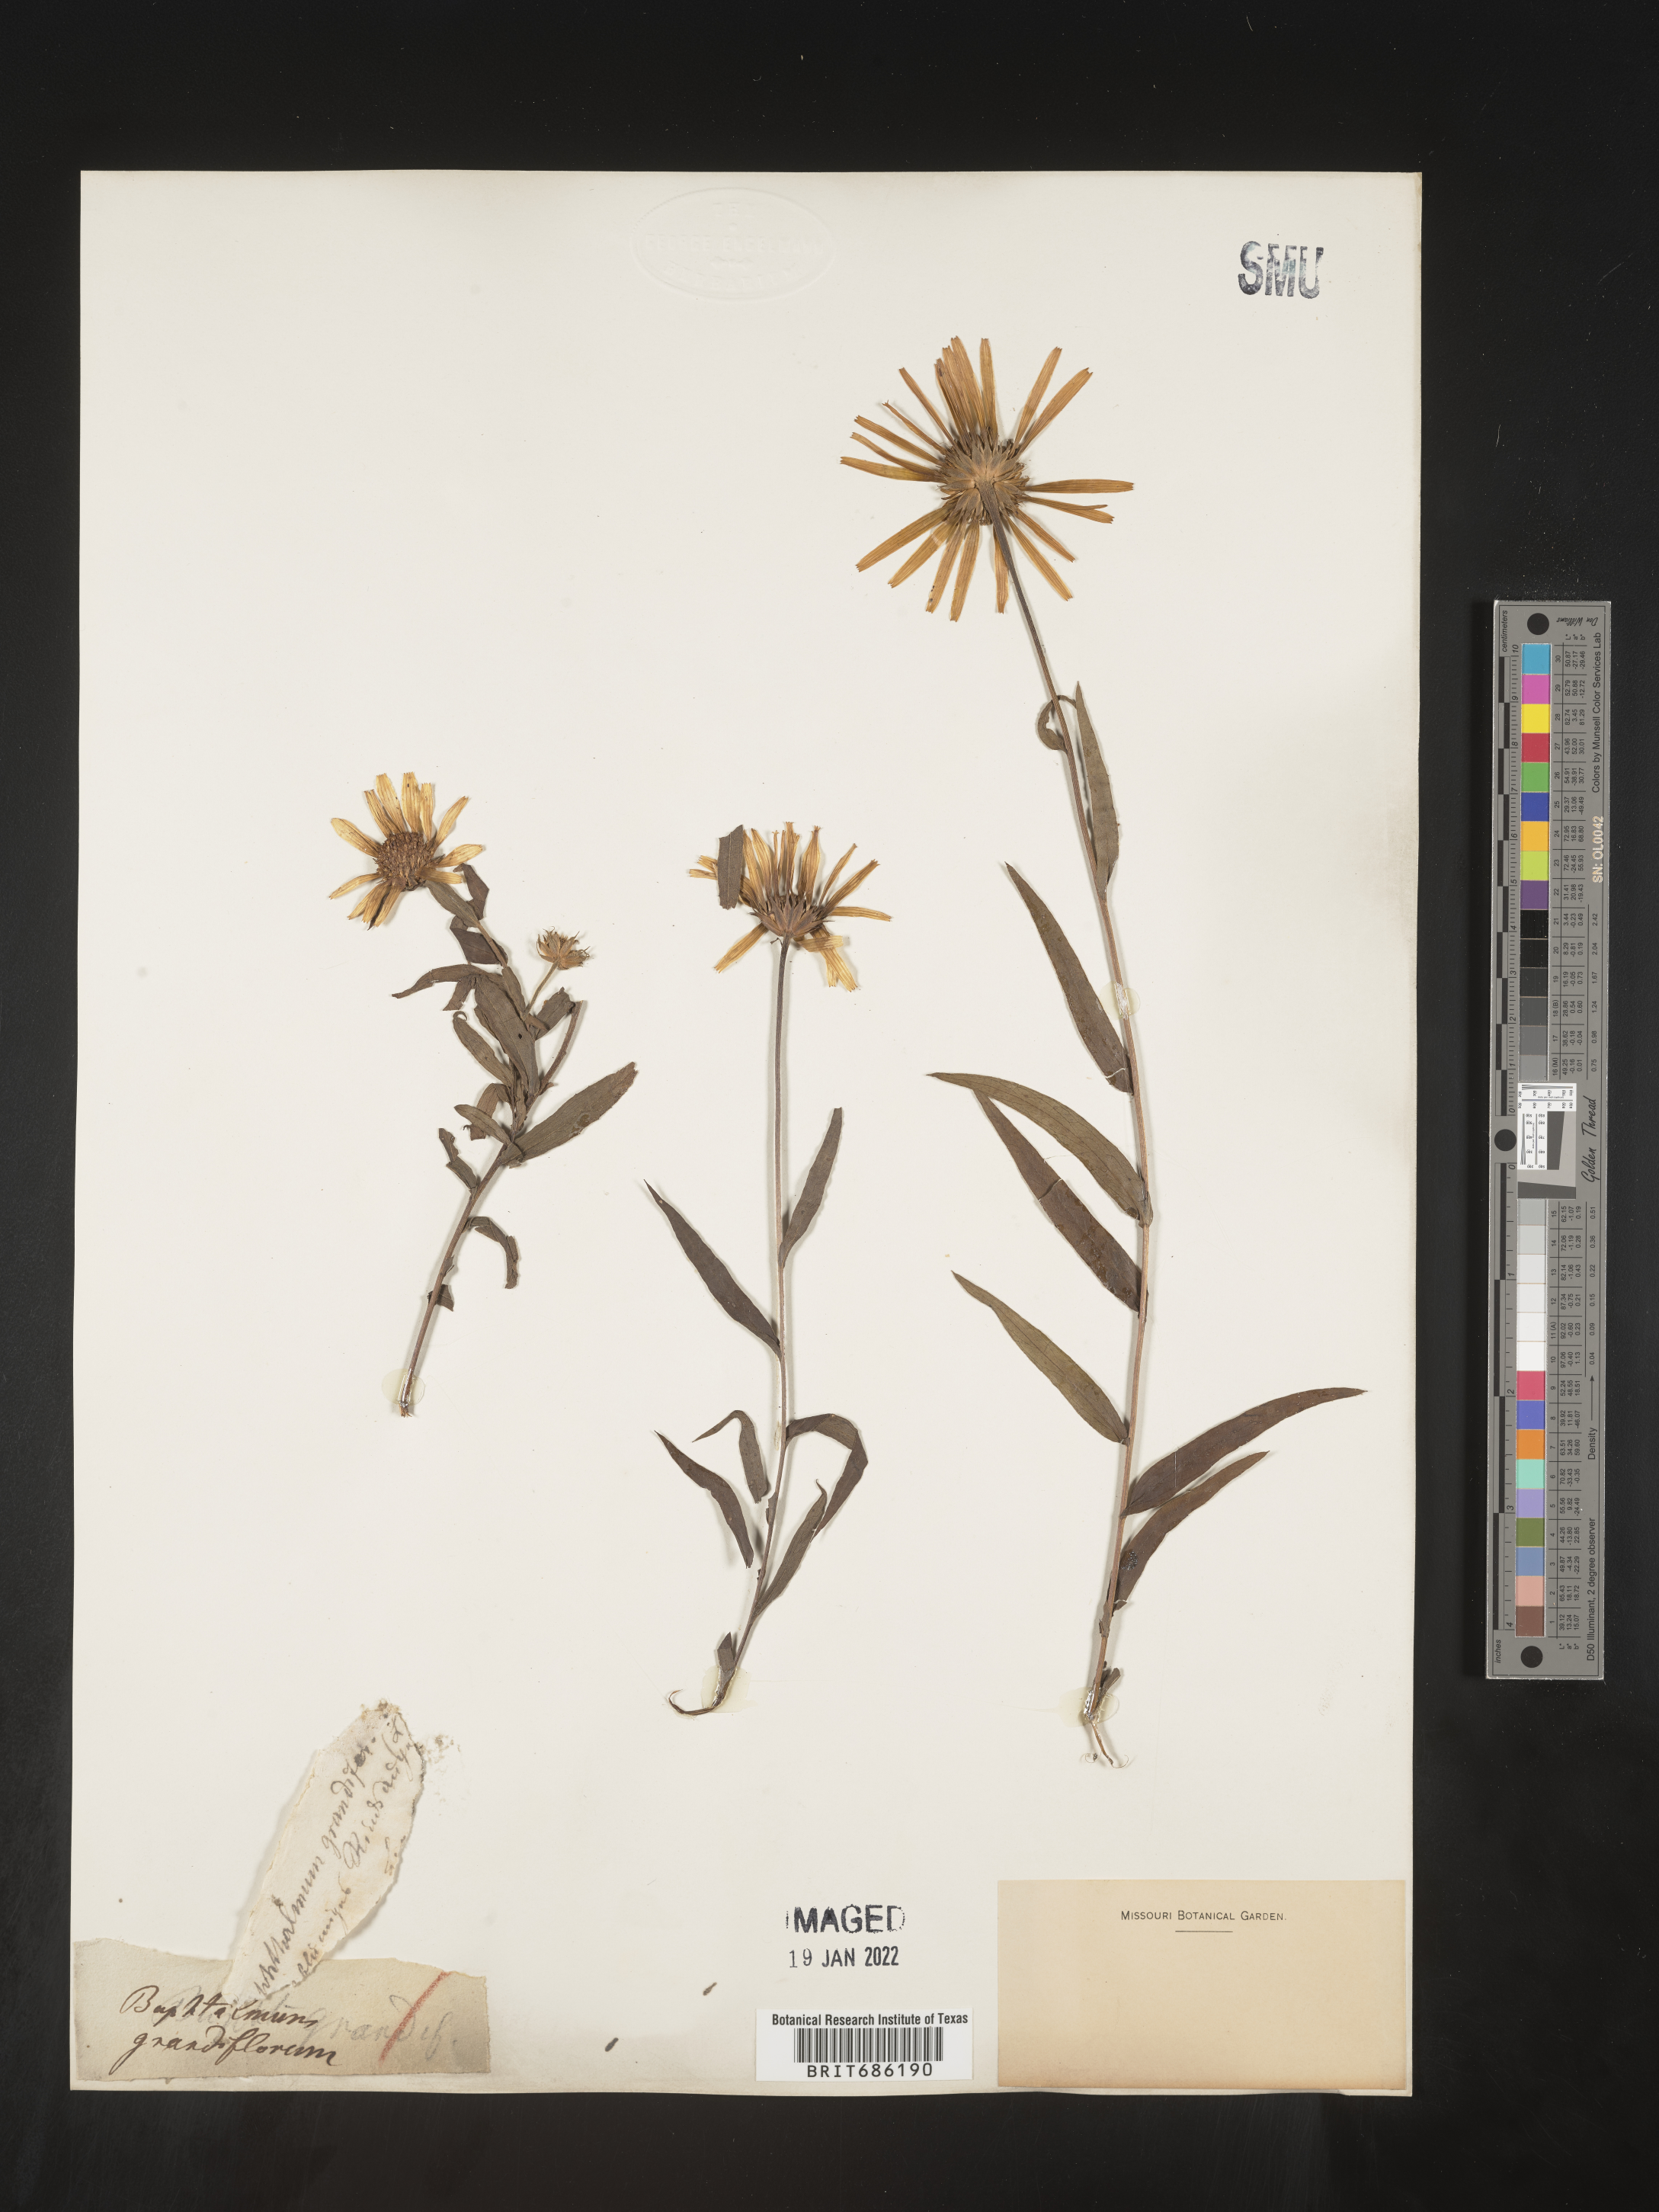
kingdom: Plantae
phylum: Tracheophyta
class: Magnoliopsida
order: Asterales
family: Asteraceae
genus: Buphthalmum
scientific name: Buphthalmum
